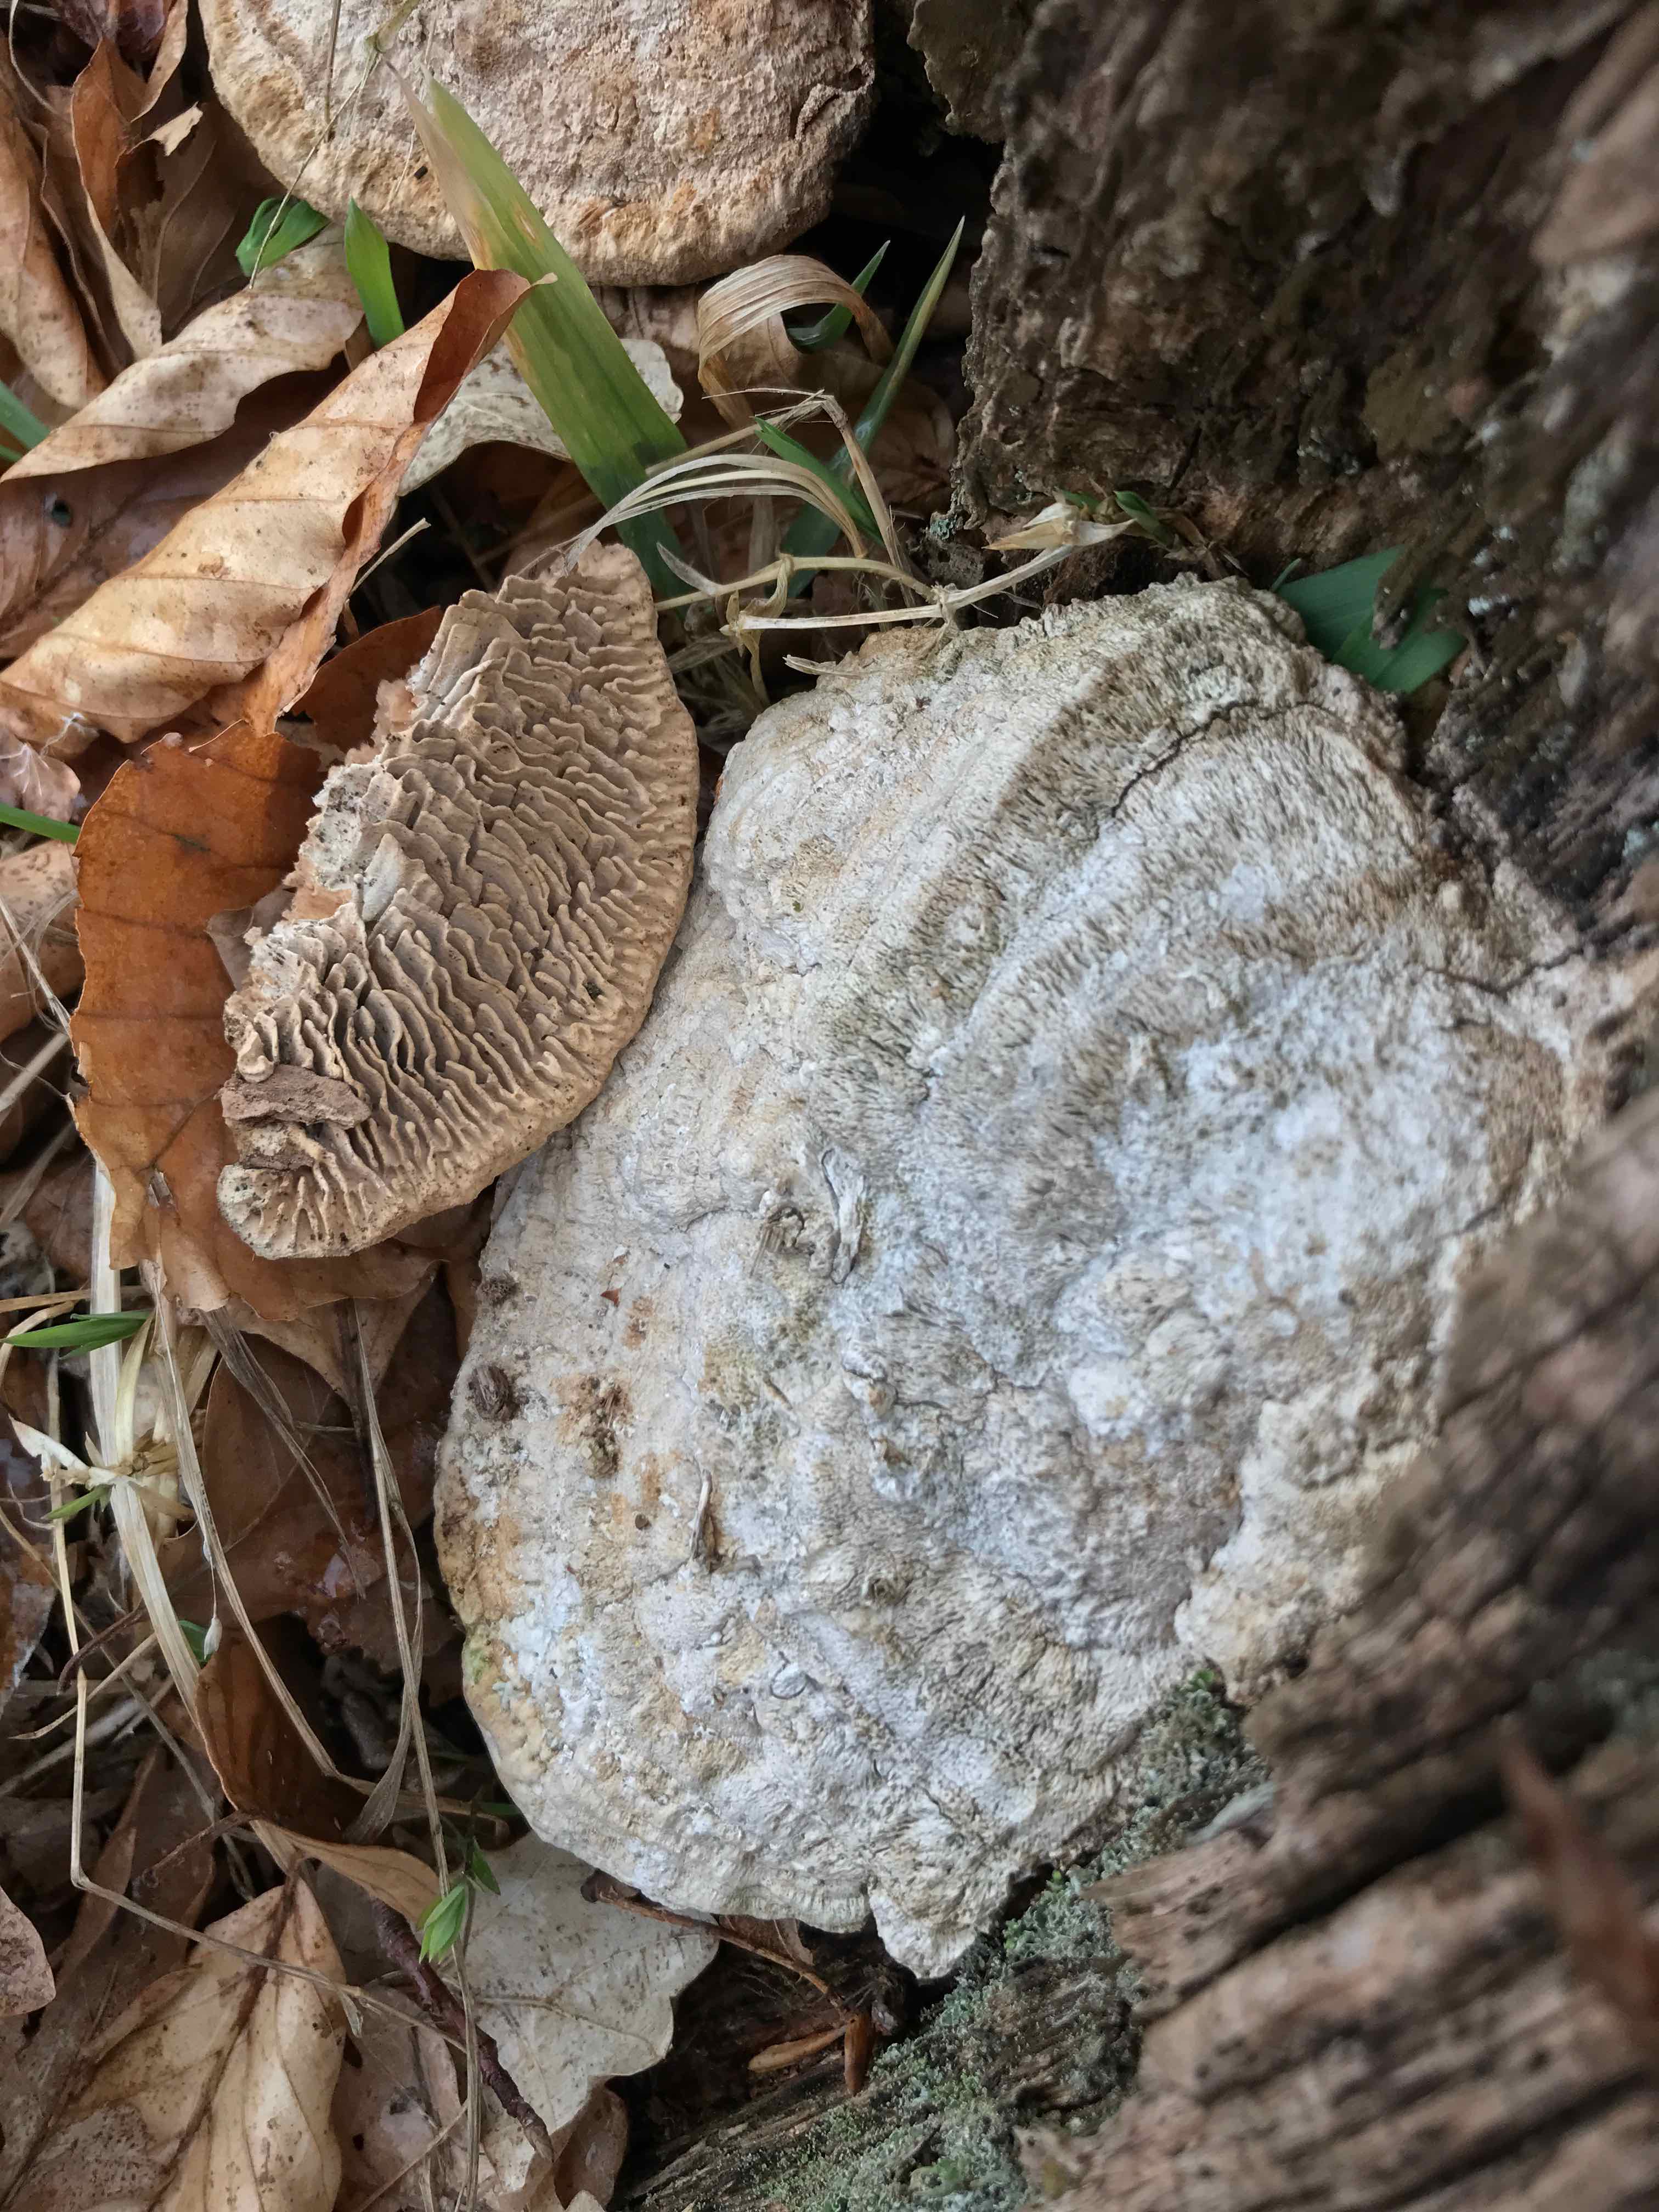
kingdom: Fungi
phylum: Basidiomycota
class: Agaricomycetes
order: Polyporales
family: Fomitopsidaceae
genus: Daedalea
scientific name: Daedalea quercina
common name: ege-labyrintsvamp
